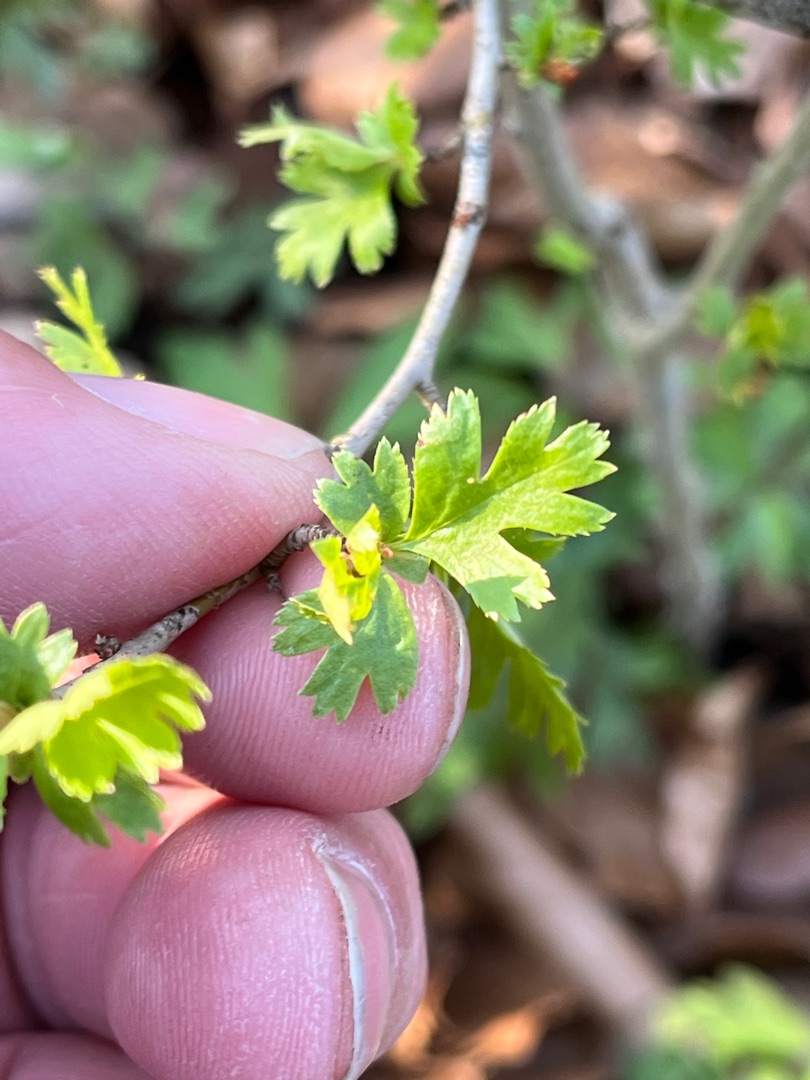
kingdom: Plantae
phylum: Tracheophyta
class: Magnoliopsida
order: Rosales
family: Rosaceae
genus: Crataegus
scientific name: Crataegus monogyna
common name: Engriflet hvidtjørn
